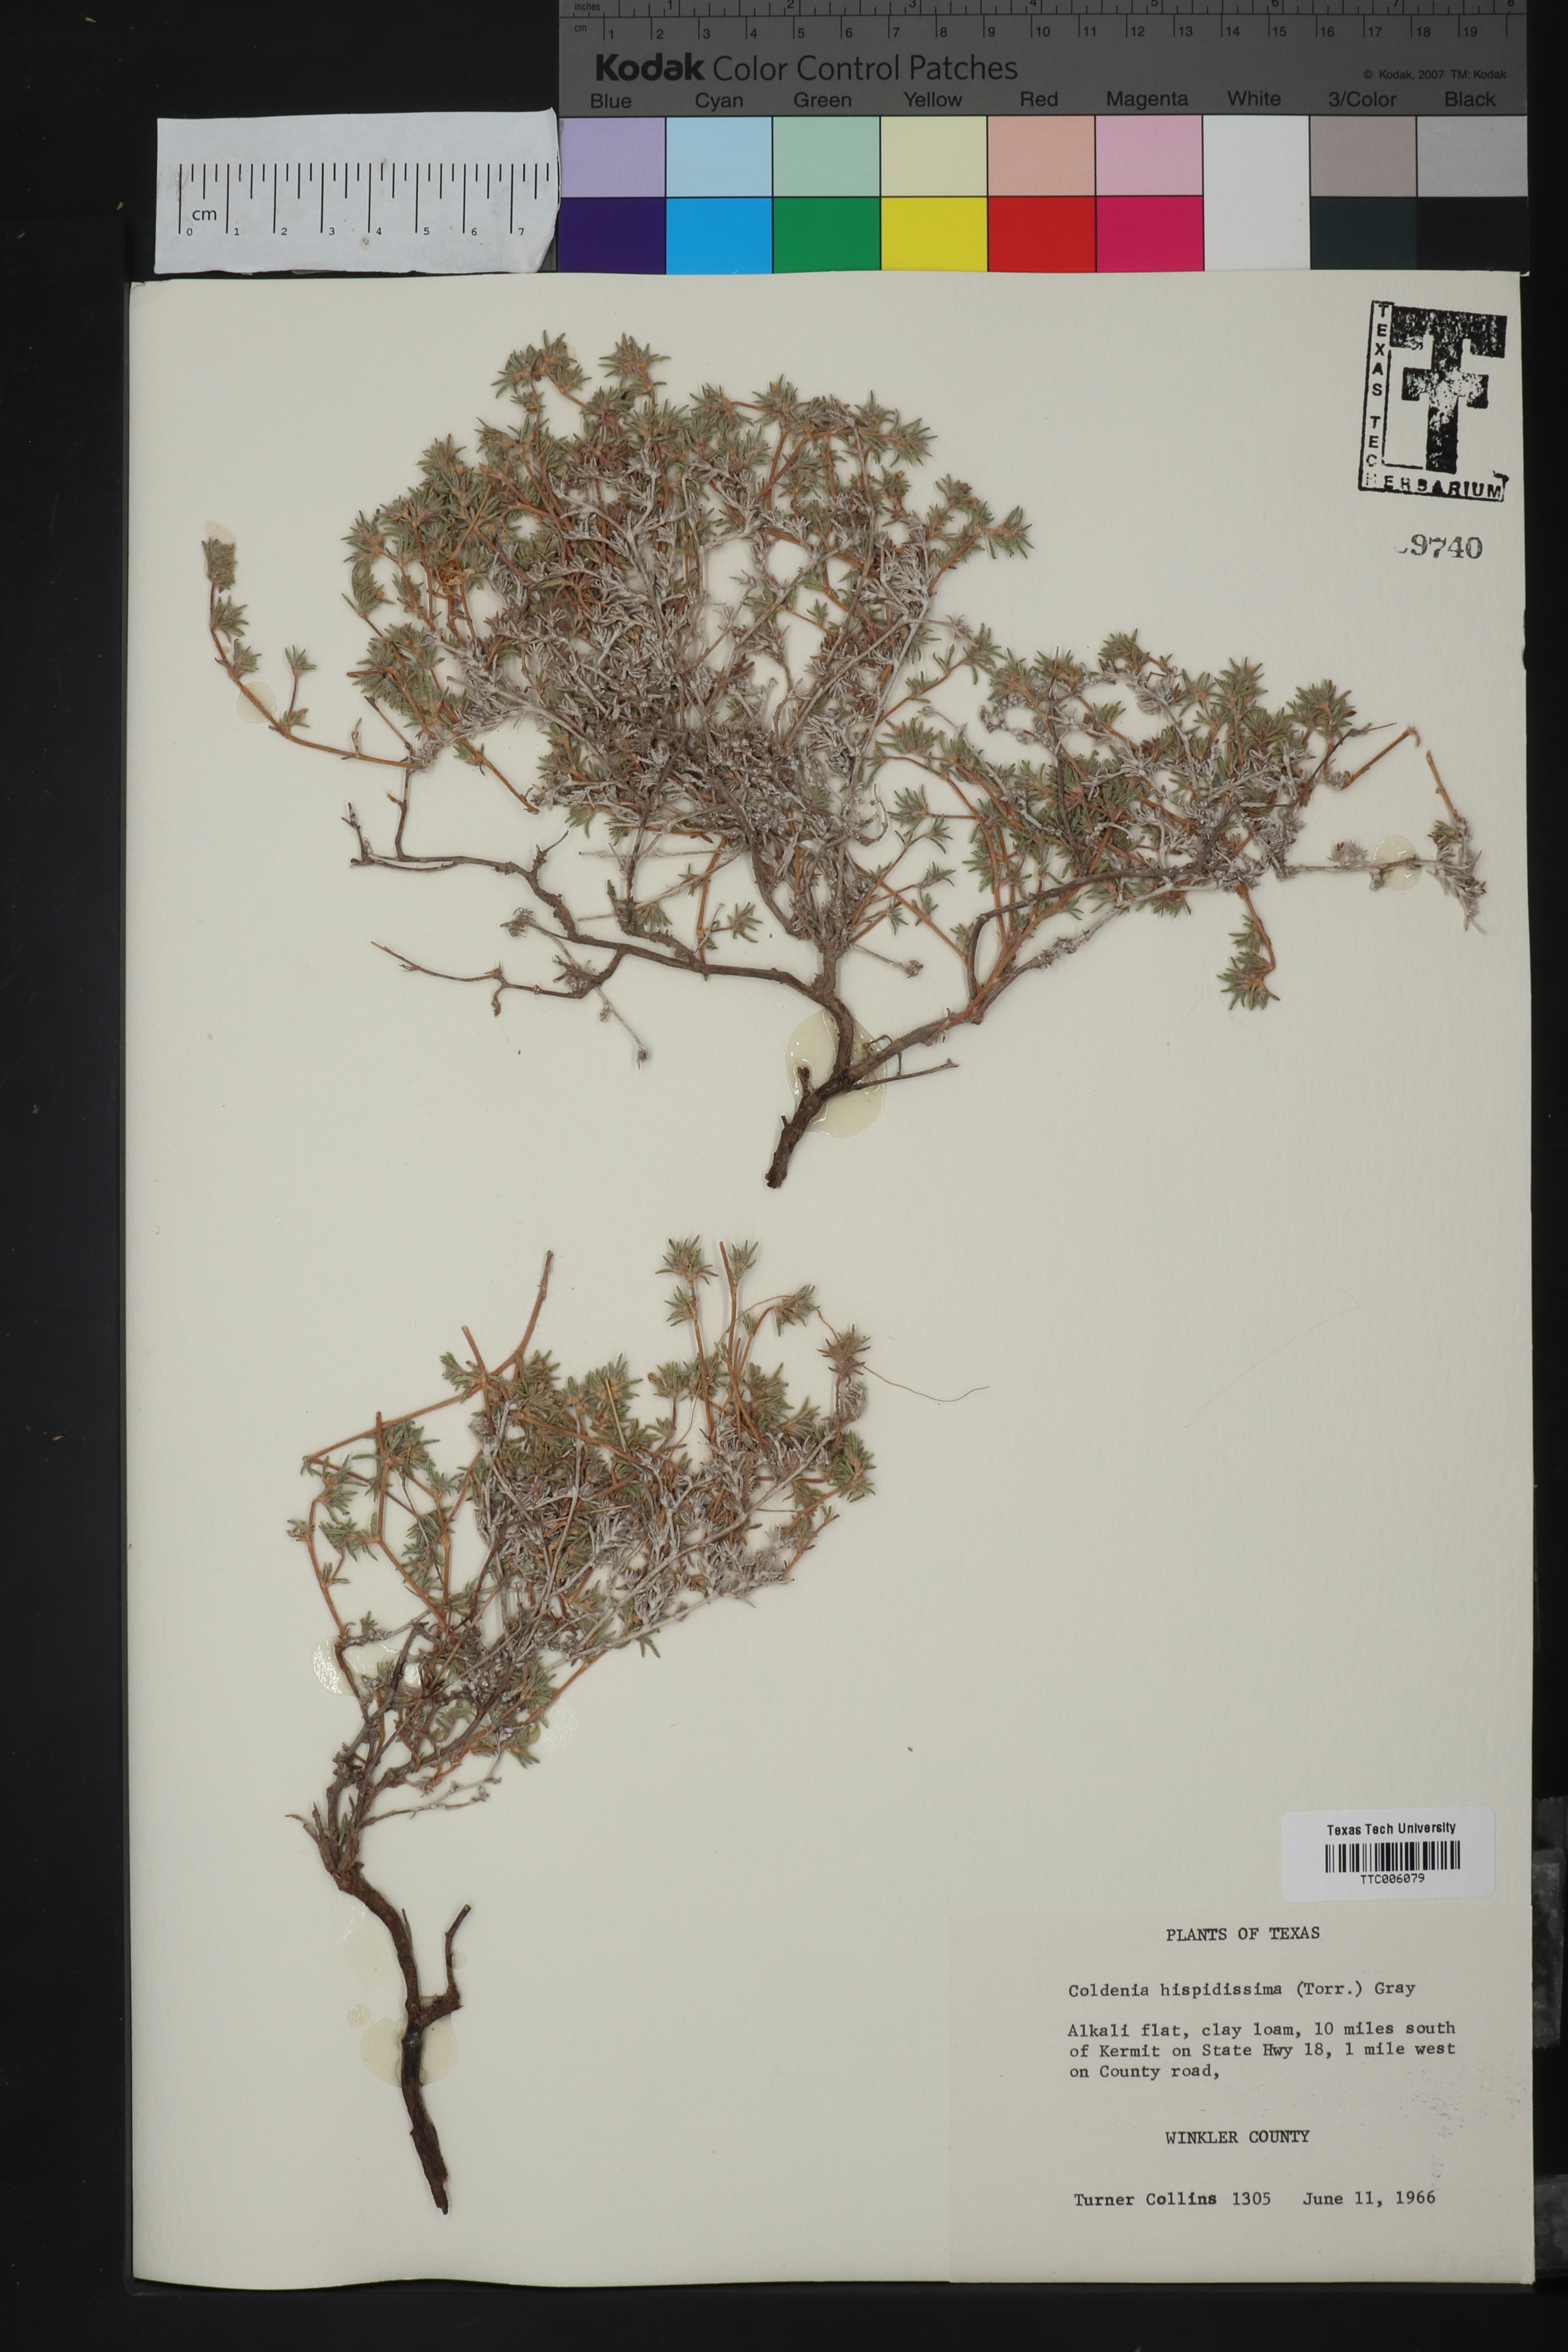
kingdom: Plantae
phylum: Tracheophyta
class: Magnoliopsida
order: Boraginales
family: Ehretiaceae
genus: Tiquilia
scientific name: Tiquilia hispidissima
